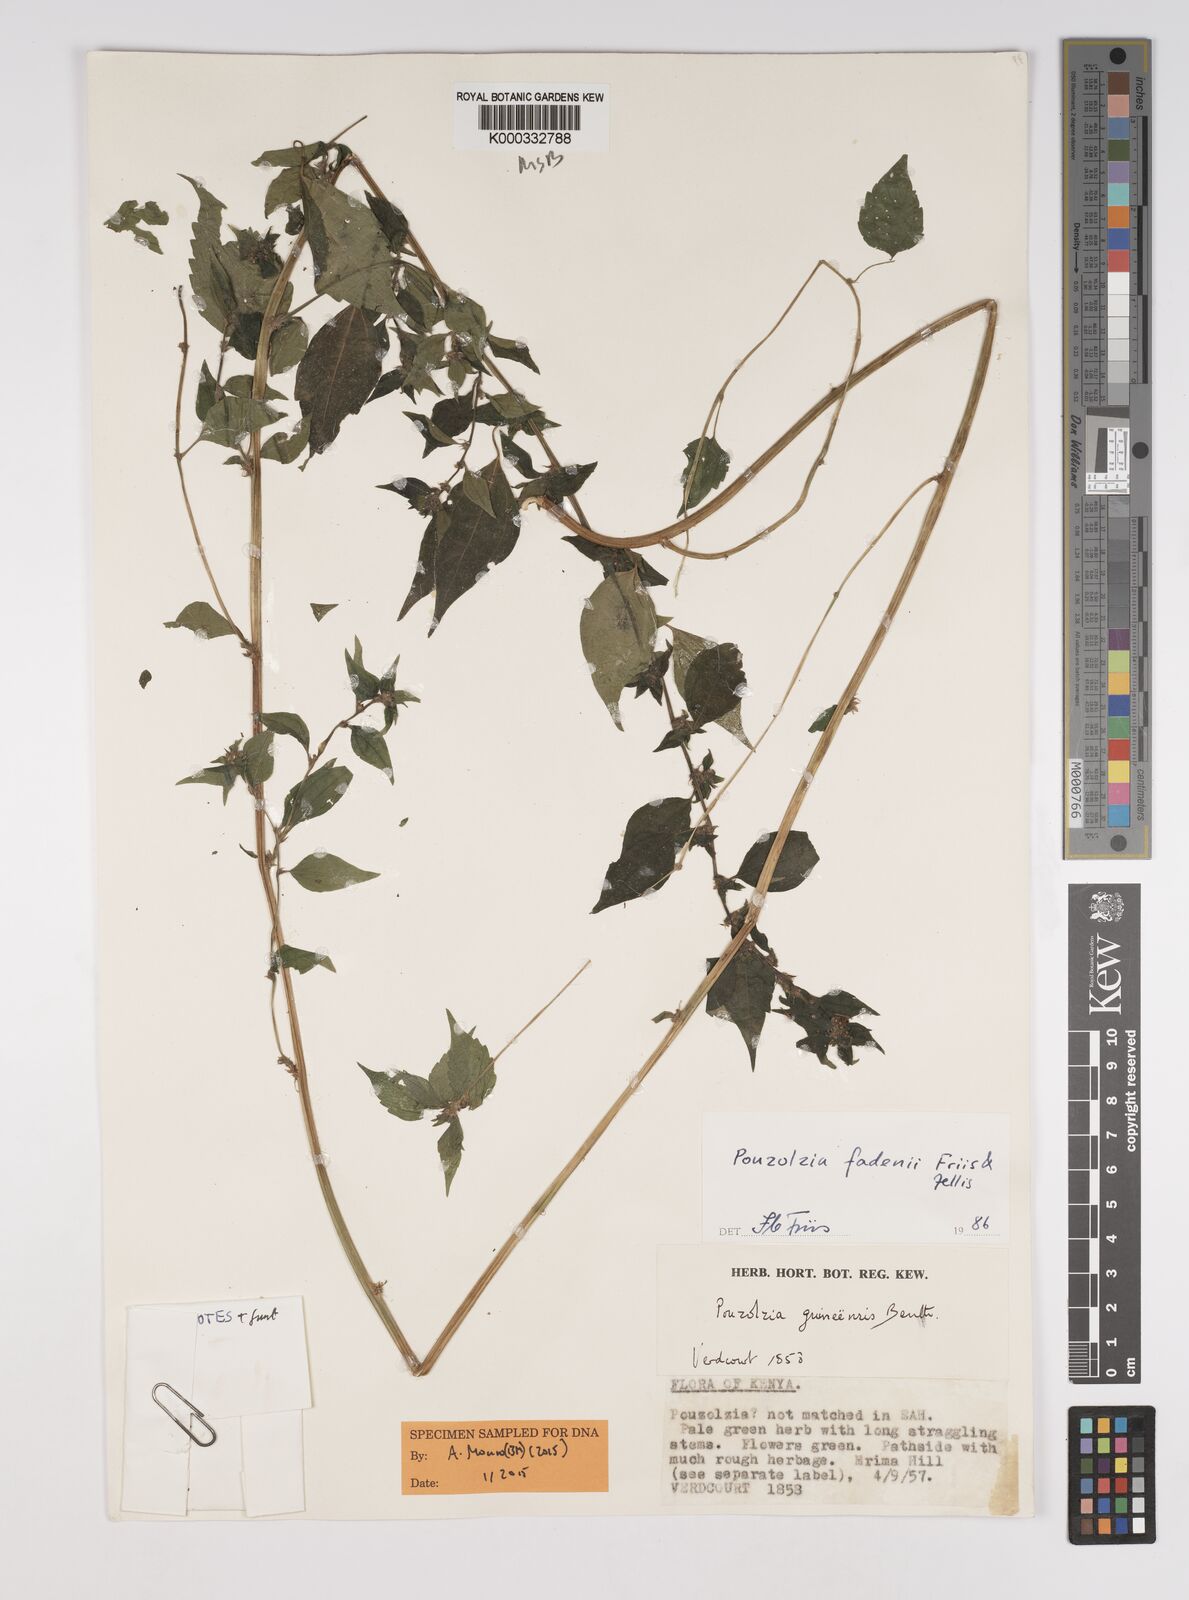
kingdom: Plantae
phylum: Tracheophyta
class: Magnoliopsida
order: Rosales
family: Urticaceae
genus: Pouzolzia
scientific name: Pouzolzia fadenii
